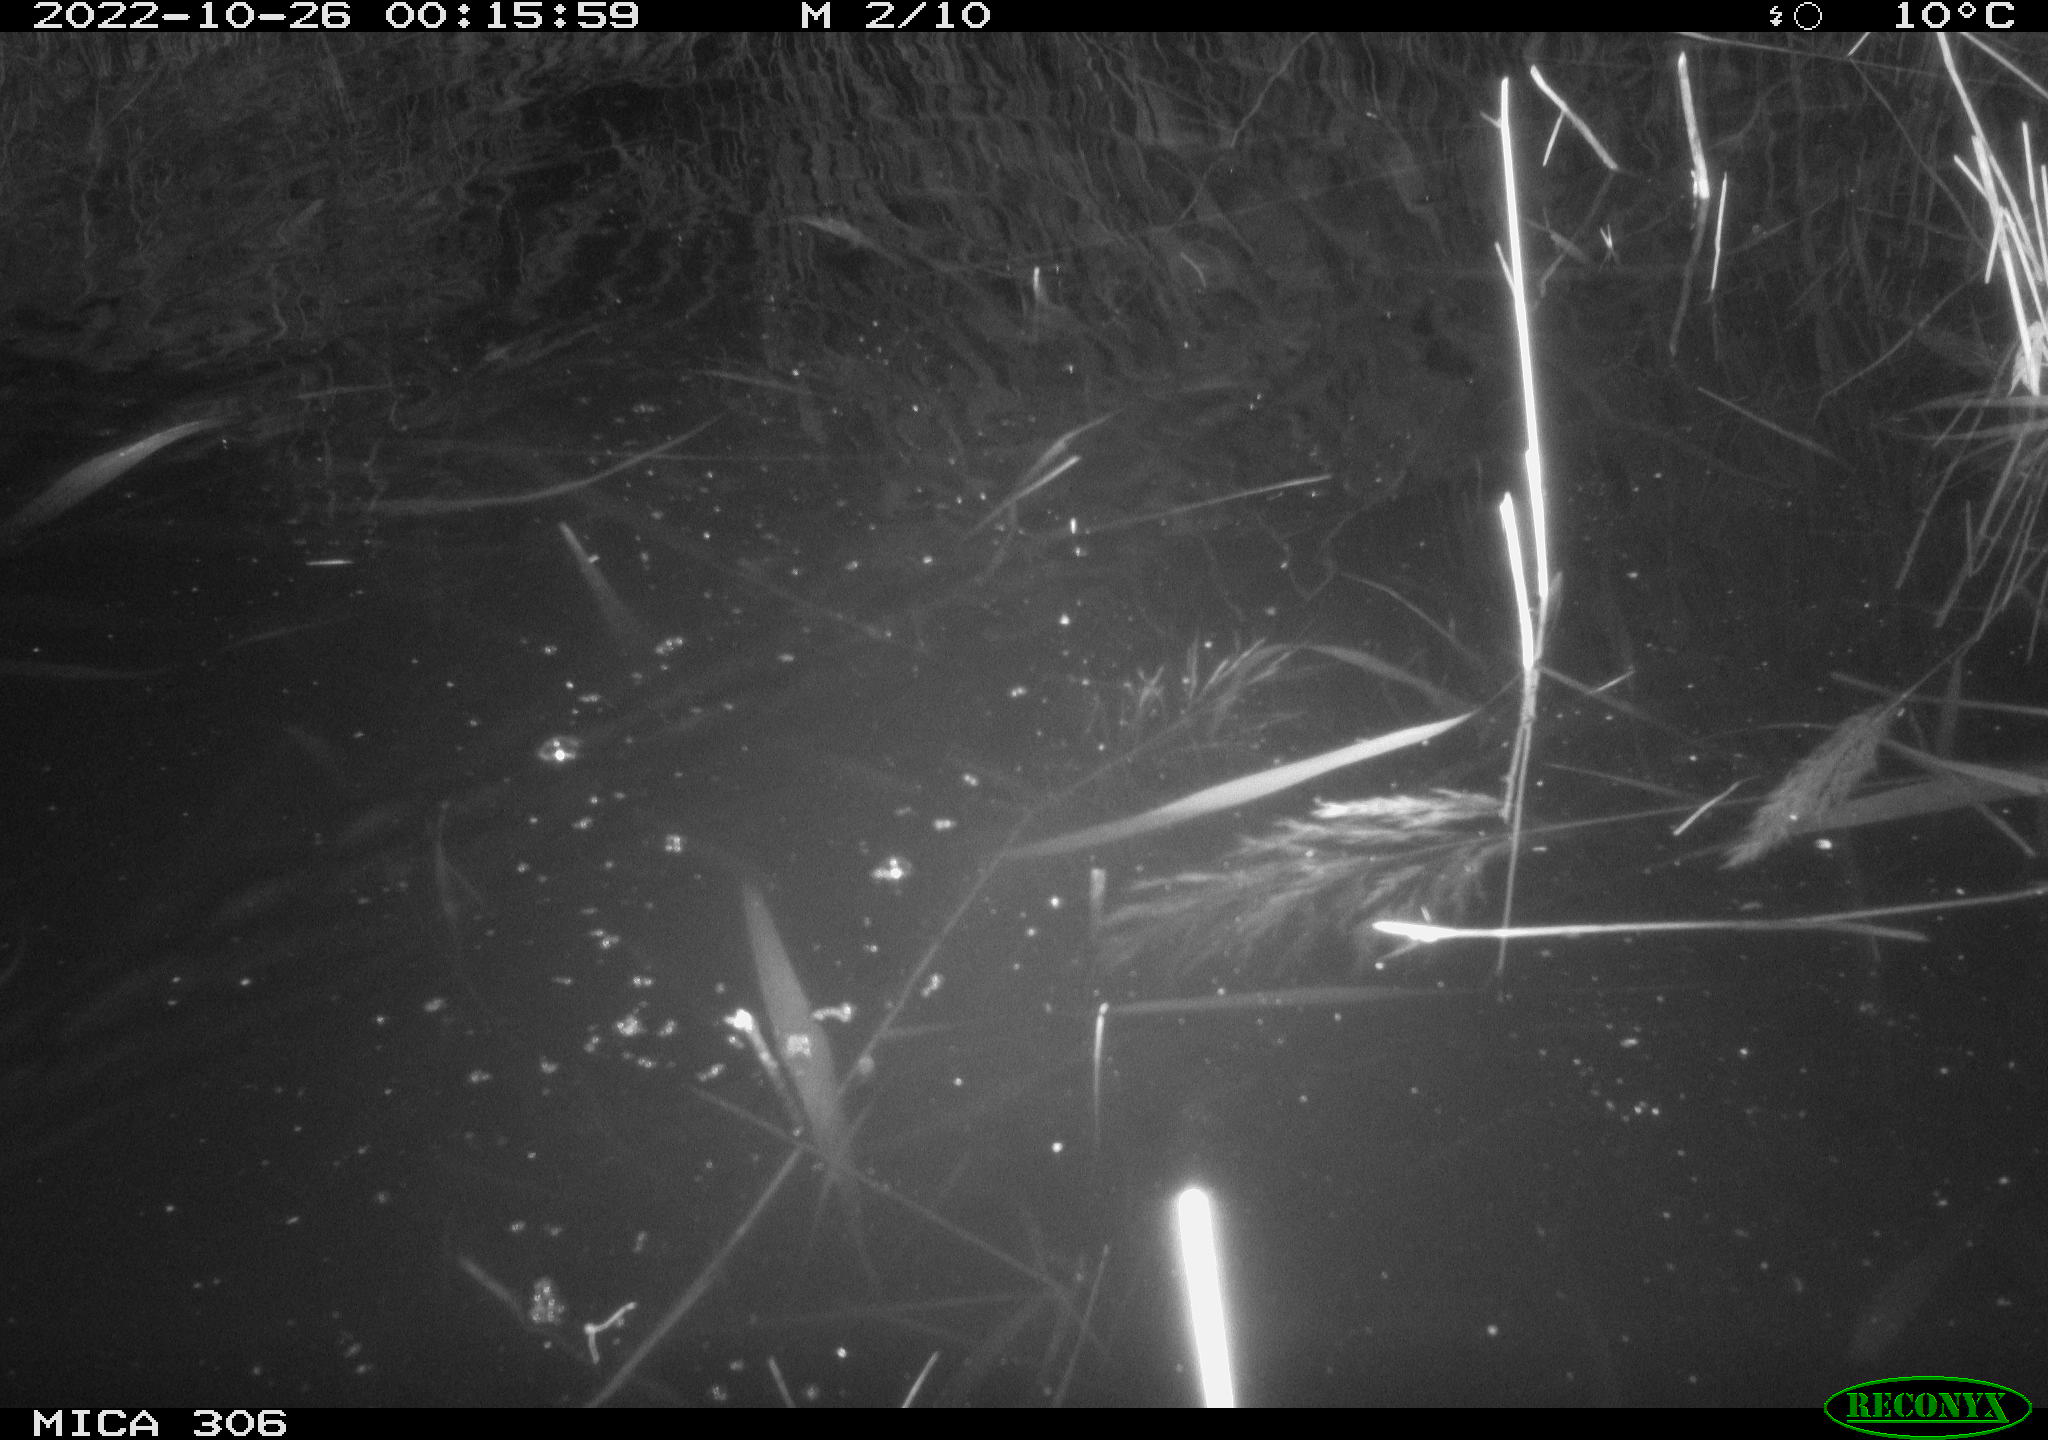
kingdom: Animalia
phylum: Chordata
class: Mammalia
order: Rodentia
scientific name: Rodentia
